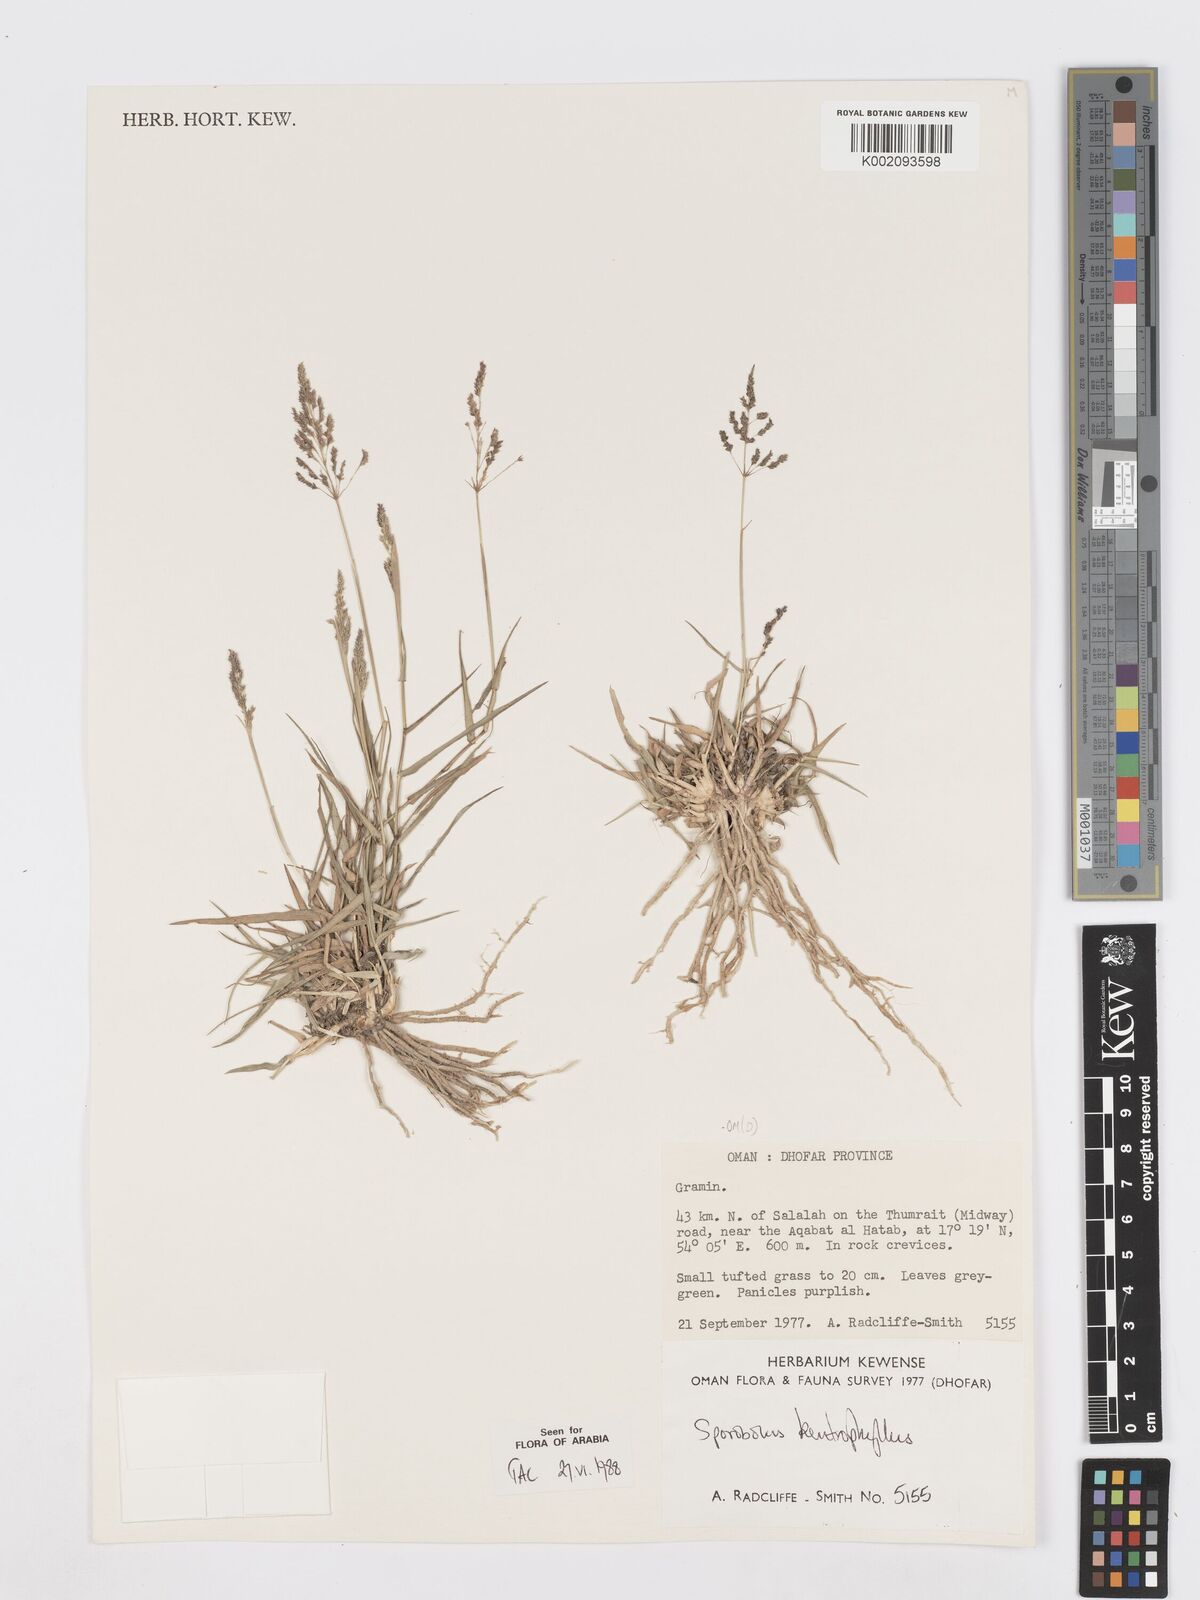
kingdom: Plantae
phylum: Tracheophyta
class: Liliopsida
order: Poales
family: Poaceae
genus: Sporobolus
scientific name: Sporobolus gloeoclados
